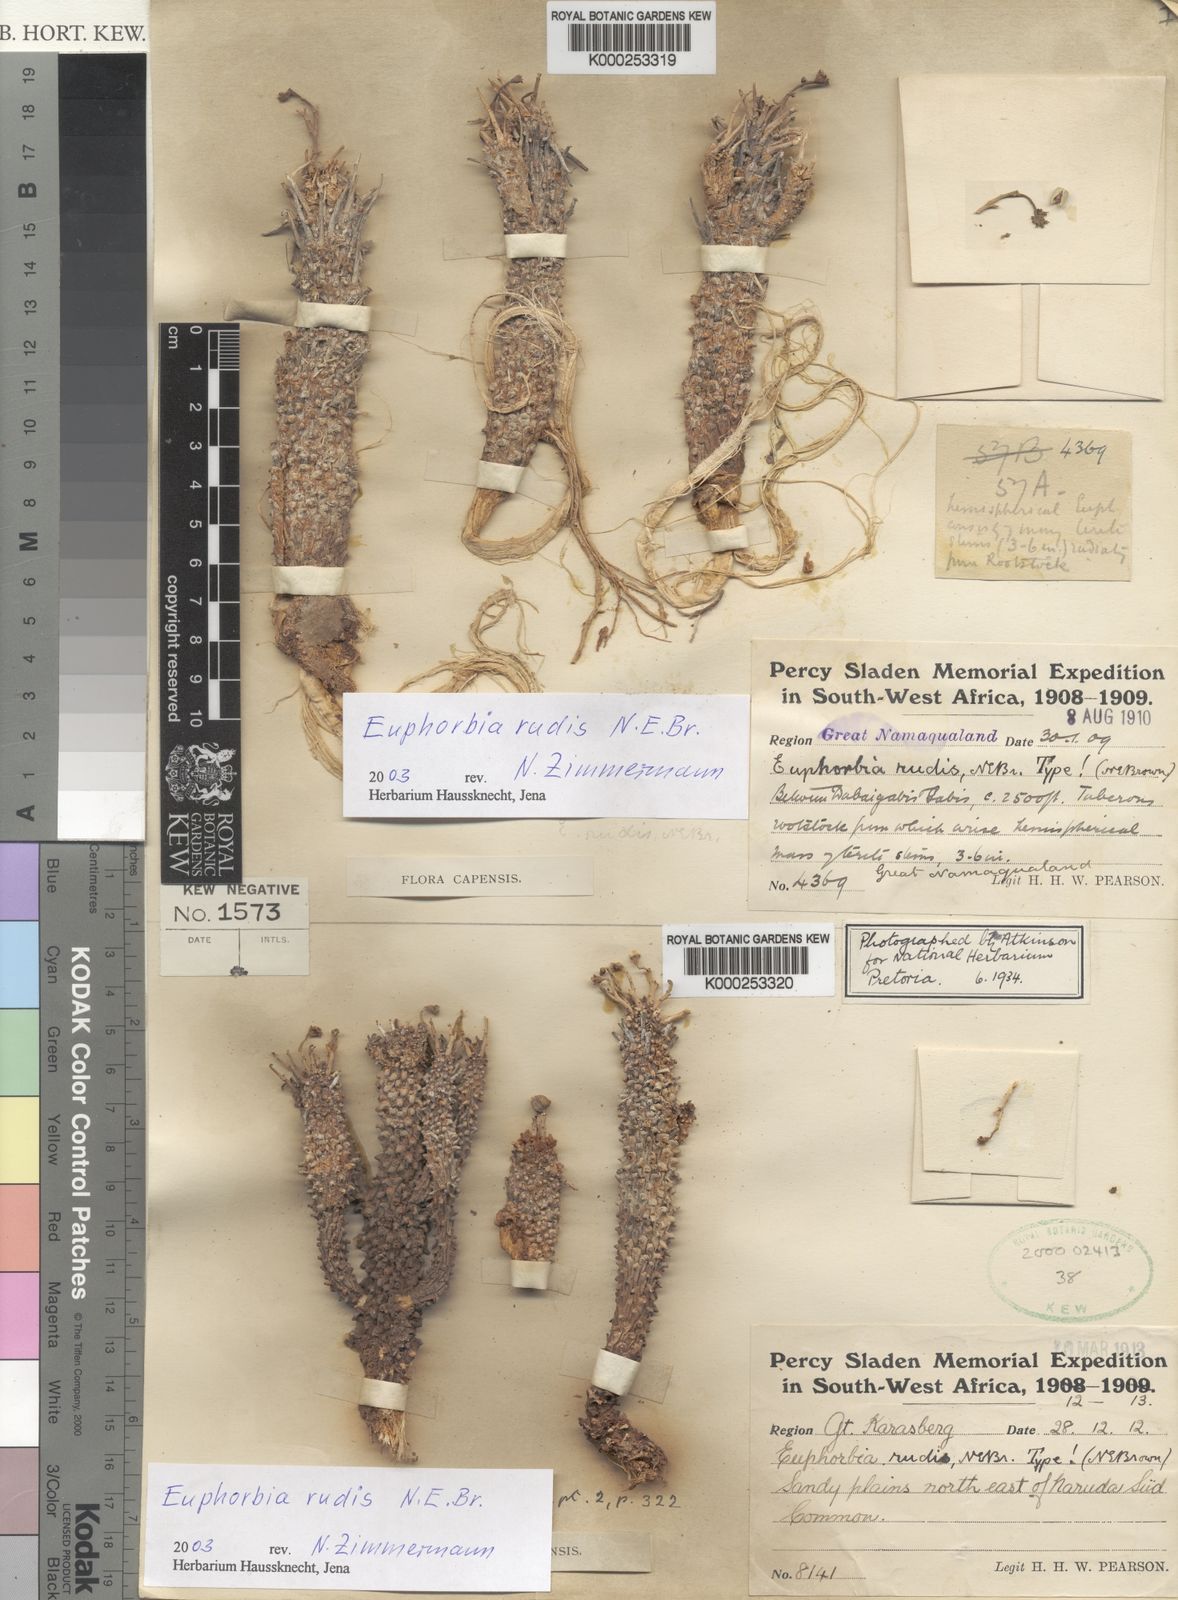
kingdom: Plantae
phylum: Tracheophyta
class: Magnoliopsida
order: Malpighiales
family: Euphorbiaceae
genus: Euphorbia
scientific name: Euphorbia braunsii
